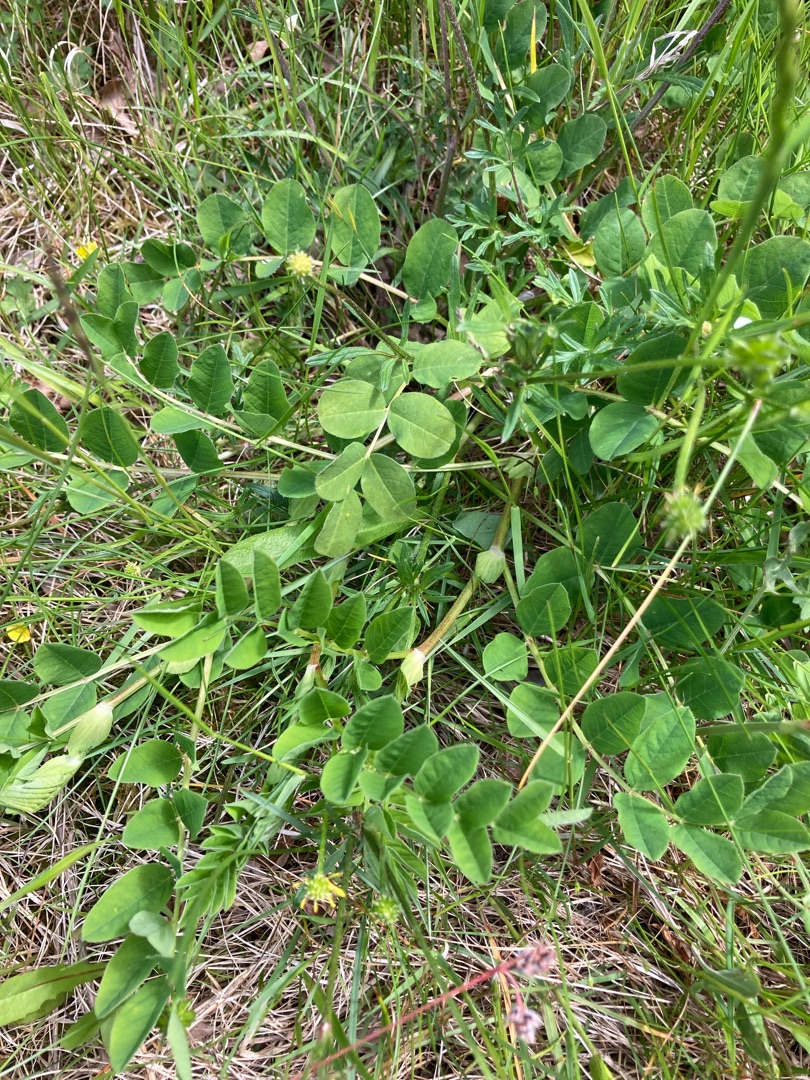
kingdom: Plantae
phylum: Tracheophyta
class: Magnoliopsida
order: Fabales
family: Fabaceae
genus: Astragalus
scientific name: Astragalus glycyphyllos
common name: Sød astragel
